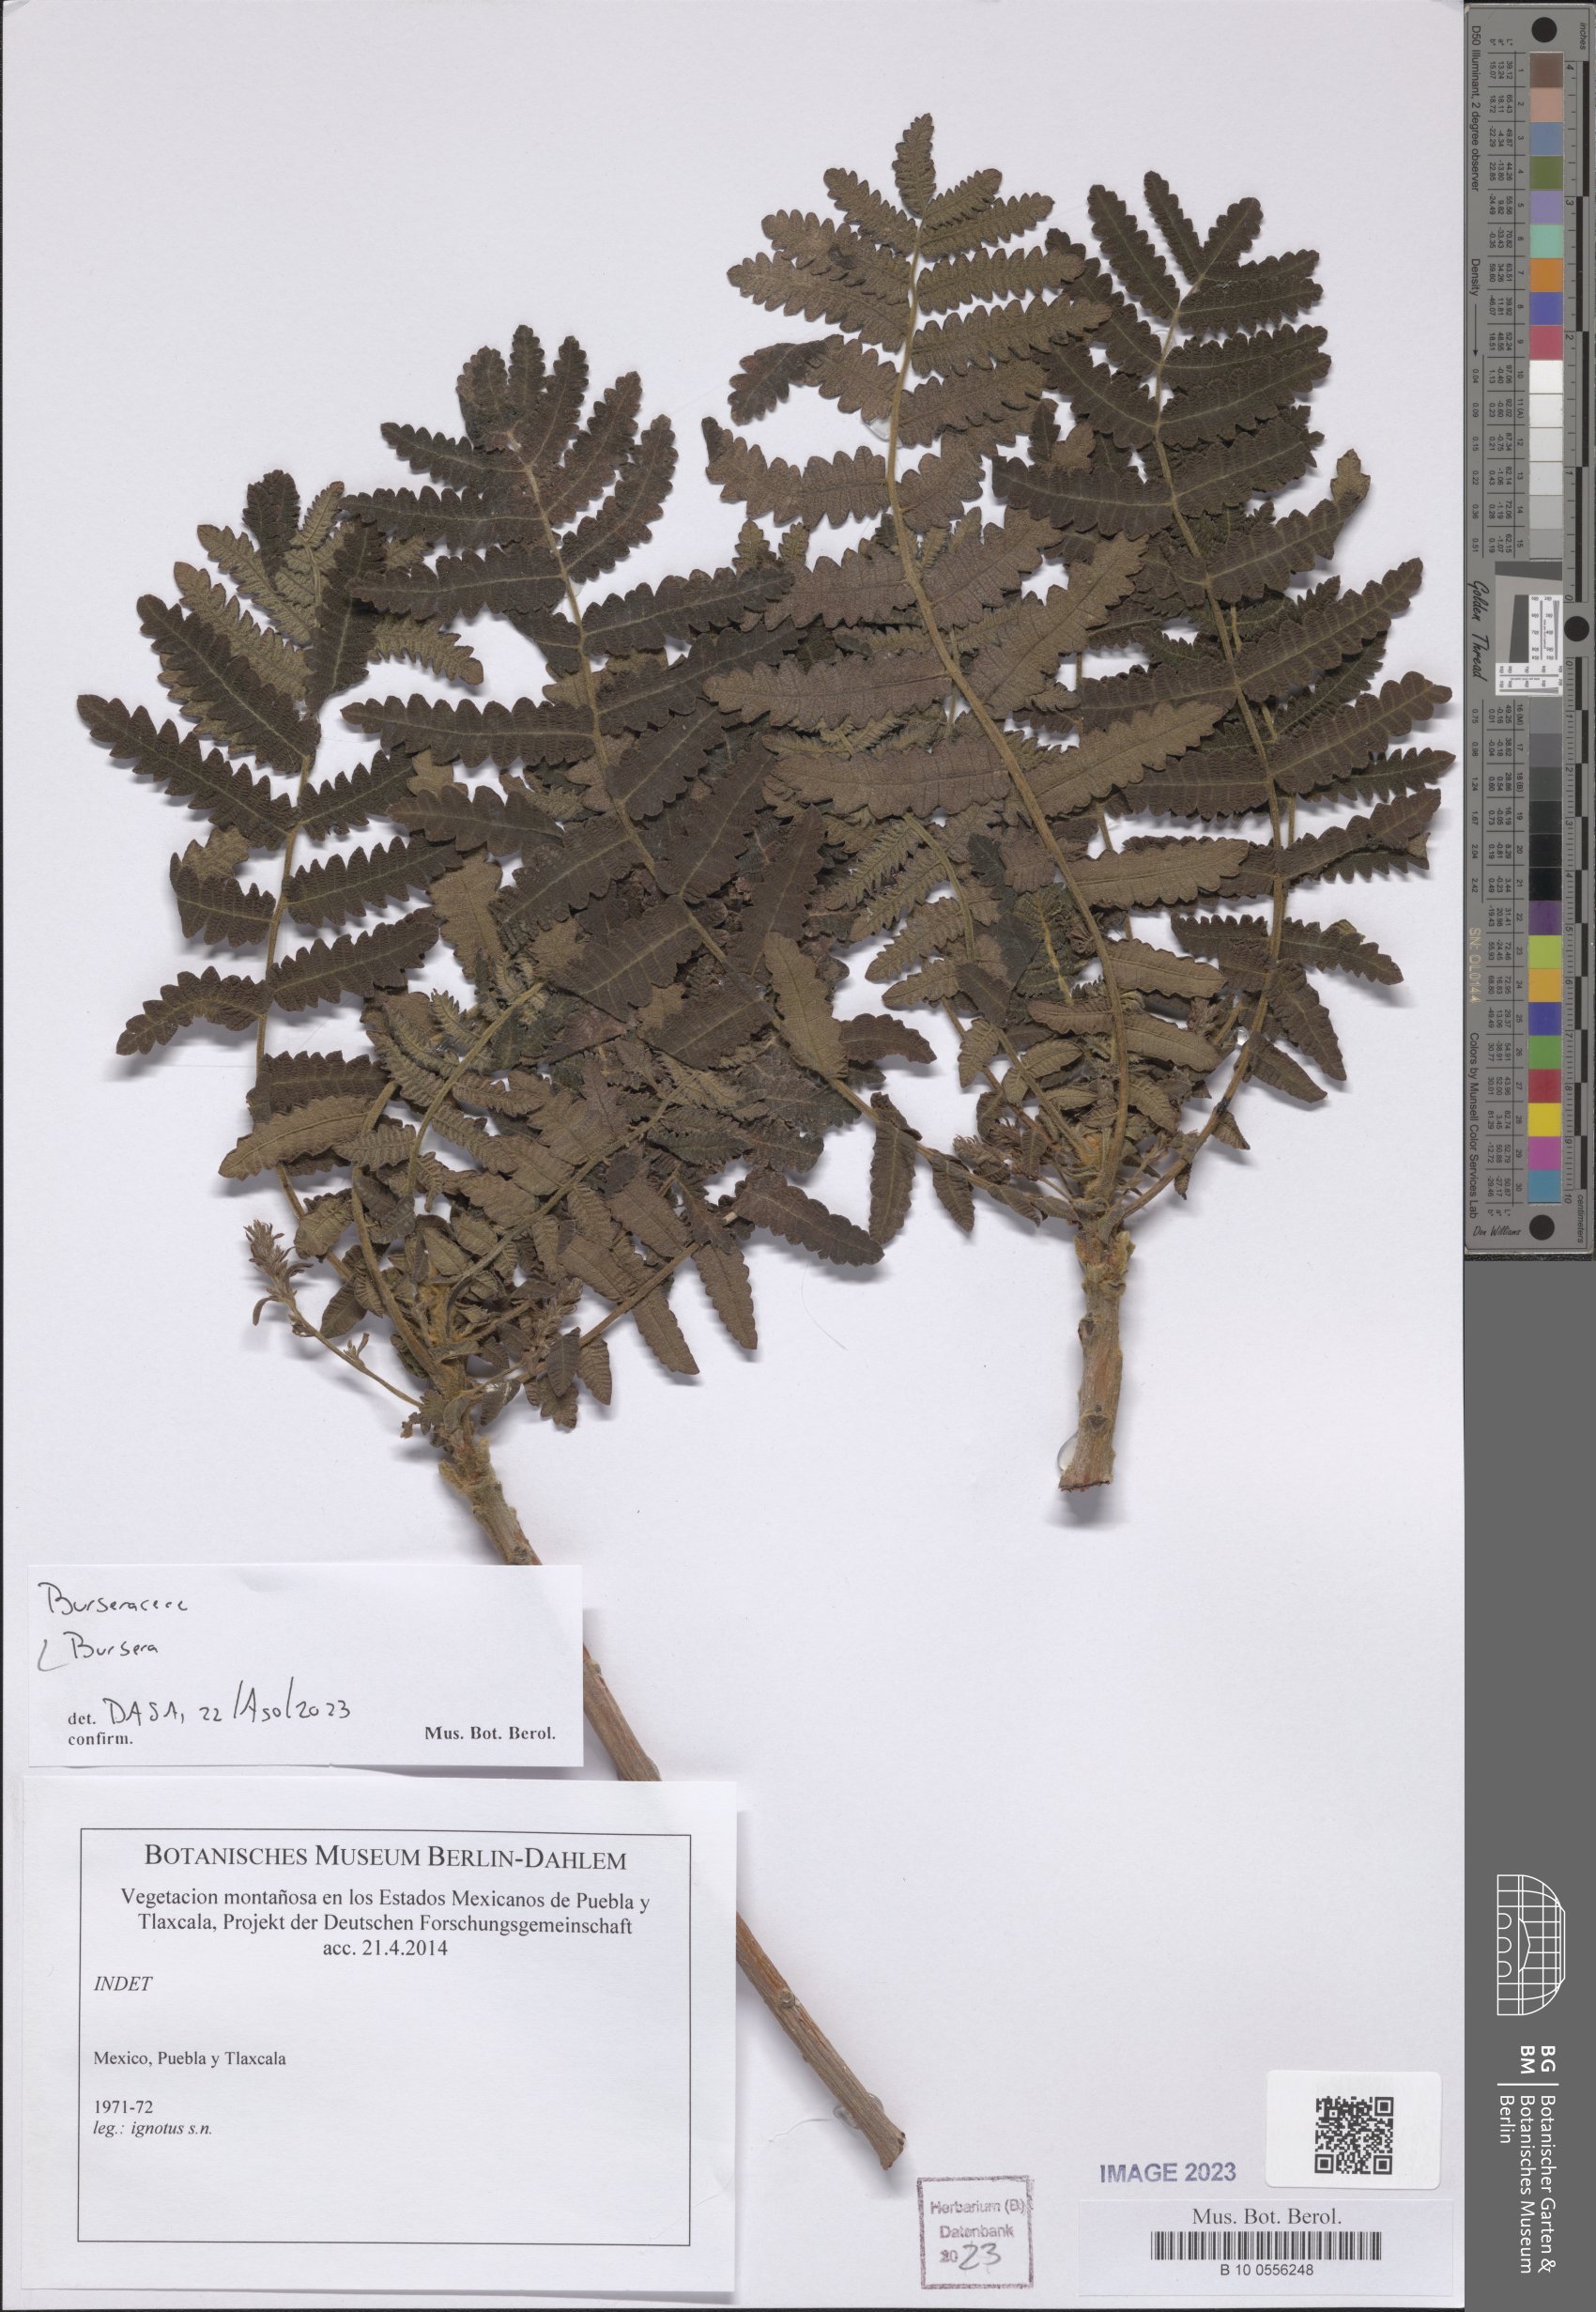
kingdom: Plantae
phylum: Tracheophyta
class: Magnoliopsida
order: Sapindales
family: Burseraceae
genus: Bursera
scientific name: Bursera
